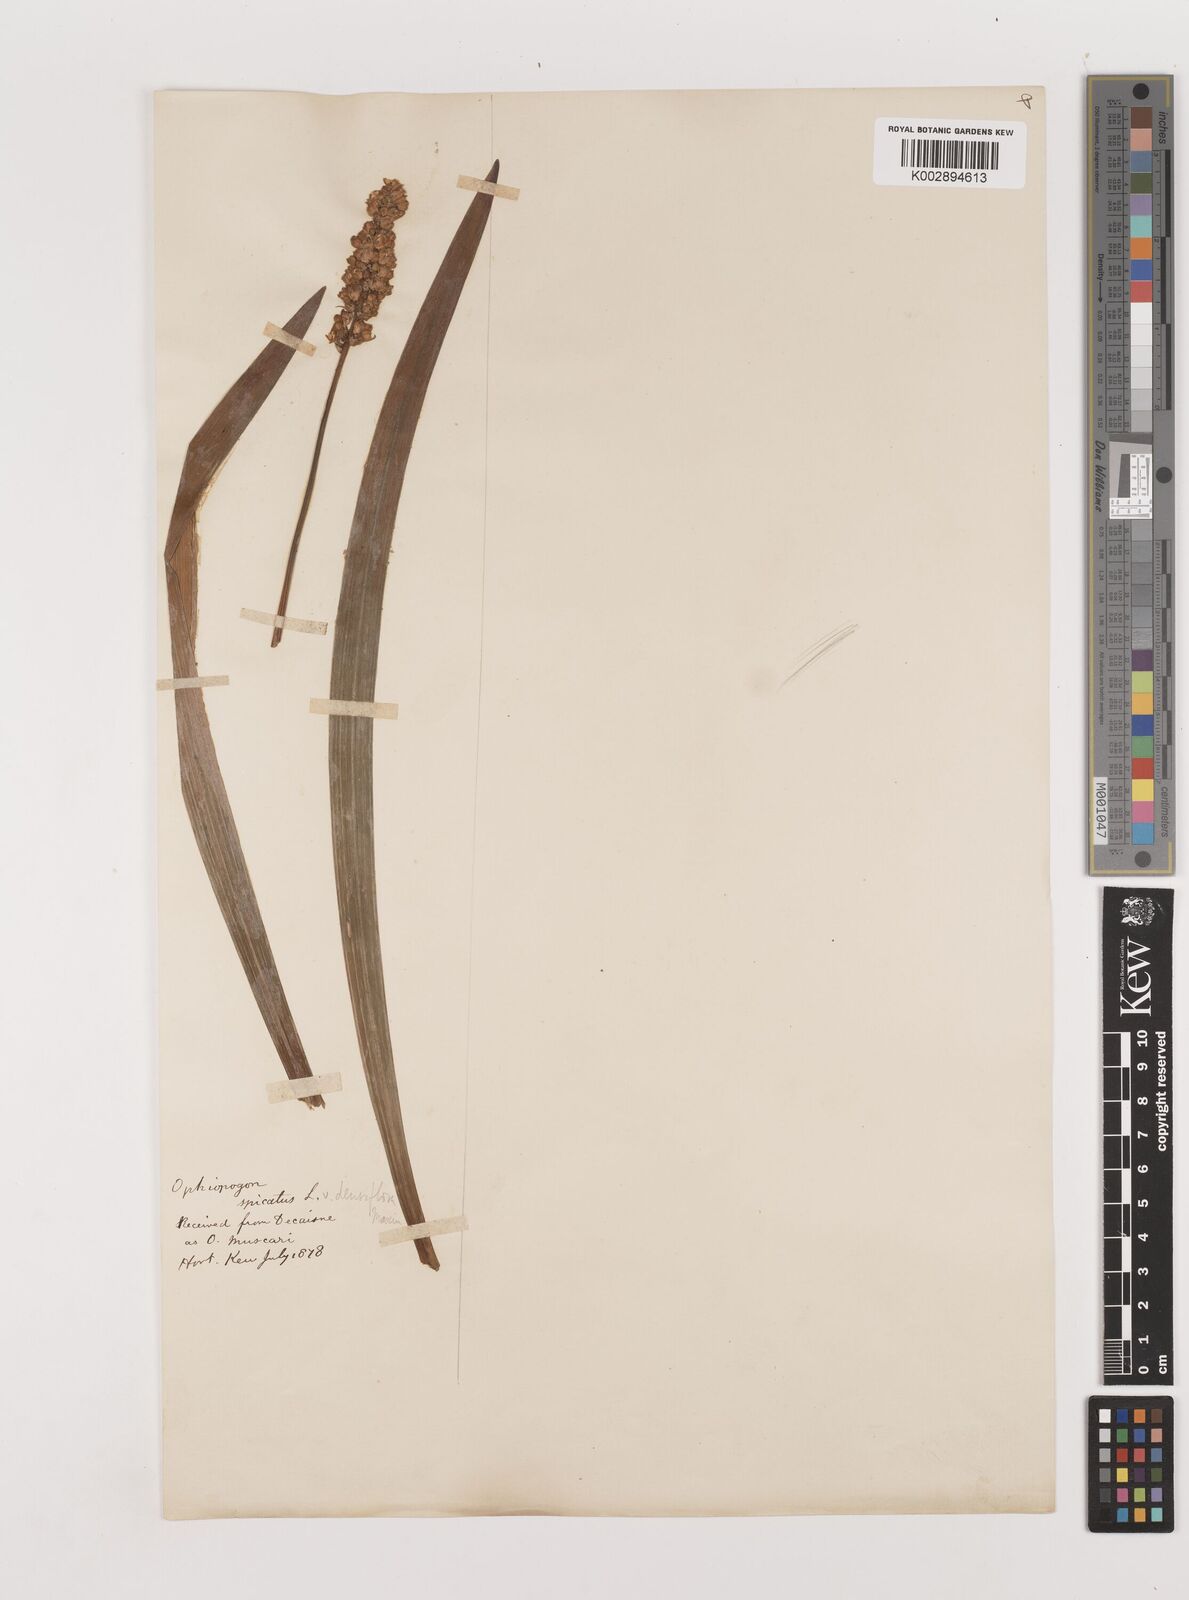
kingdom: Plantae
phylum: Tracheophyta
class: Liliopsida
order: Asparagales
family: Asparagaceae
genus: Liriope
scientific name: Liriope muscari
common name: Big blue lilyturf
